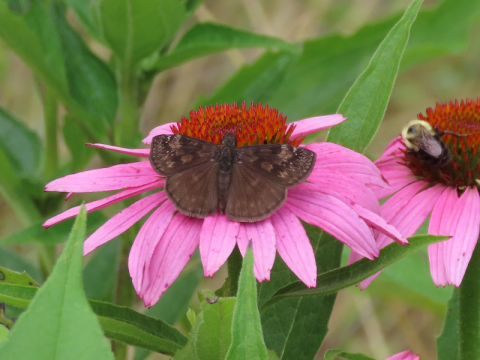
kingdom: Animalia
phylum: Arthropoda
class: Insecta
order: Lepidoptera
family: Hesperiidae
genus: Gesta
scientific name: Gesta
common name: Wild Indigo Duskywing
